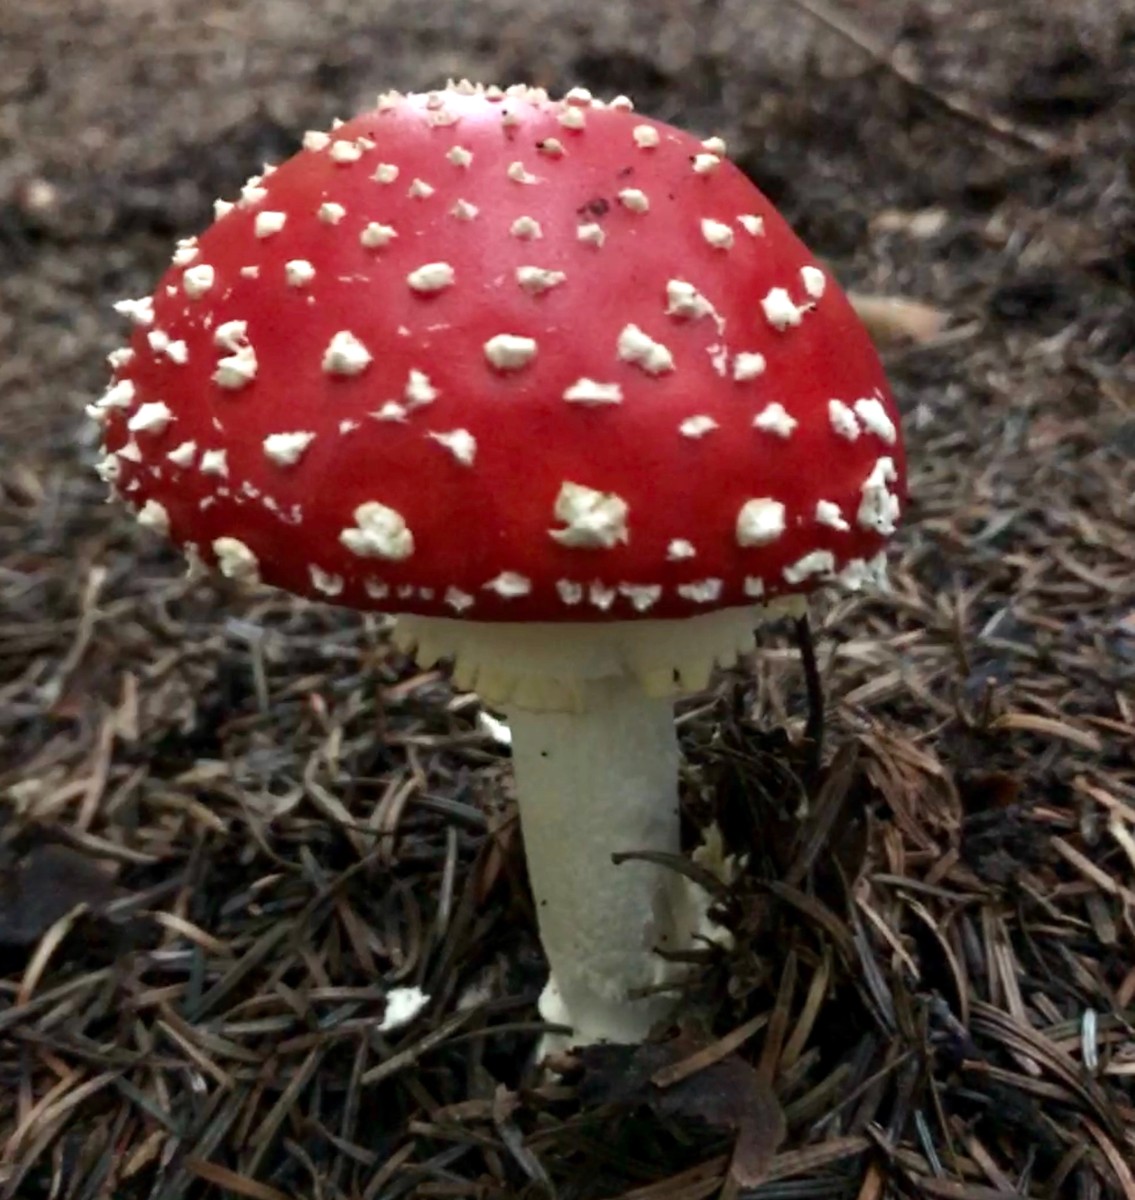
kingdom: Fungi
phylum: Basidiomycota
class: Agaricomycetes
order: Agaricales
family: Amanitaceae
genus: Amanita
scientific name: Amanita muscaria
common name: rød fluesvamp
